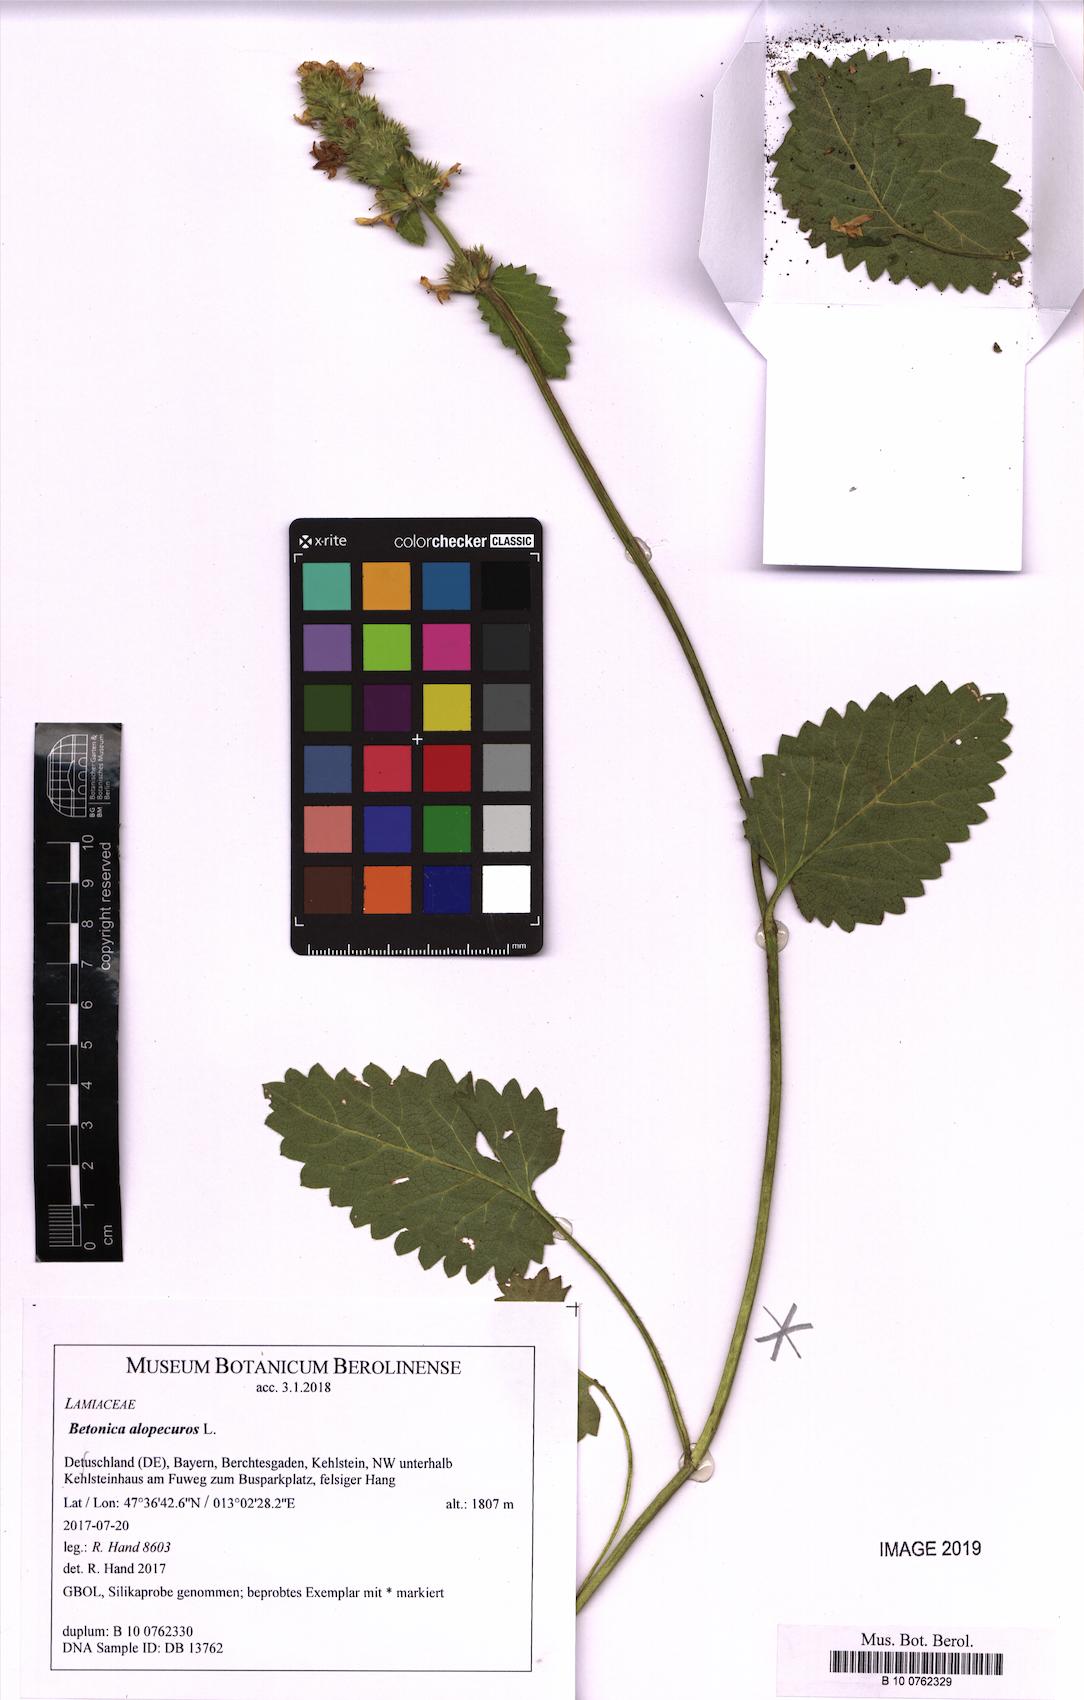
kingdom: Plantae
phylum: Tracheophyta
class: Magnoliopsida
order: Lamiales
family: Lamiaceae
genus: Betonica
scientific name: Betonica alopecuros
